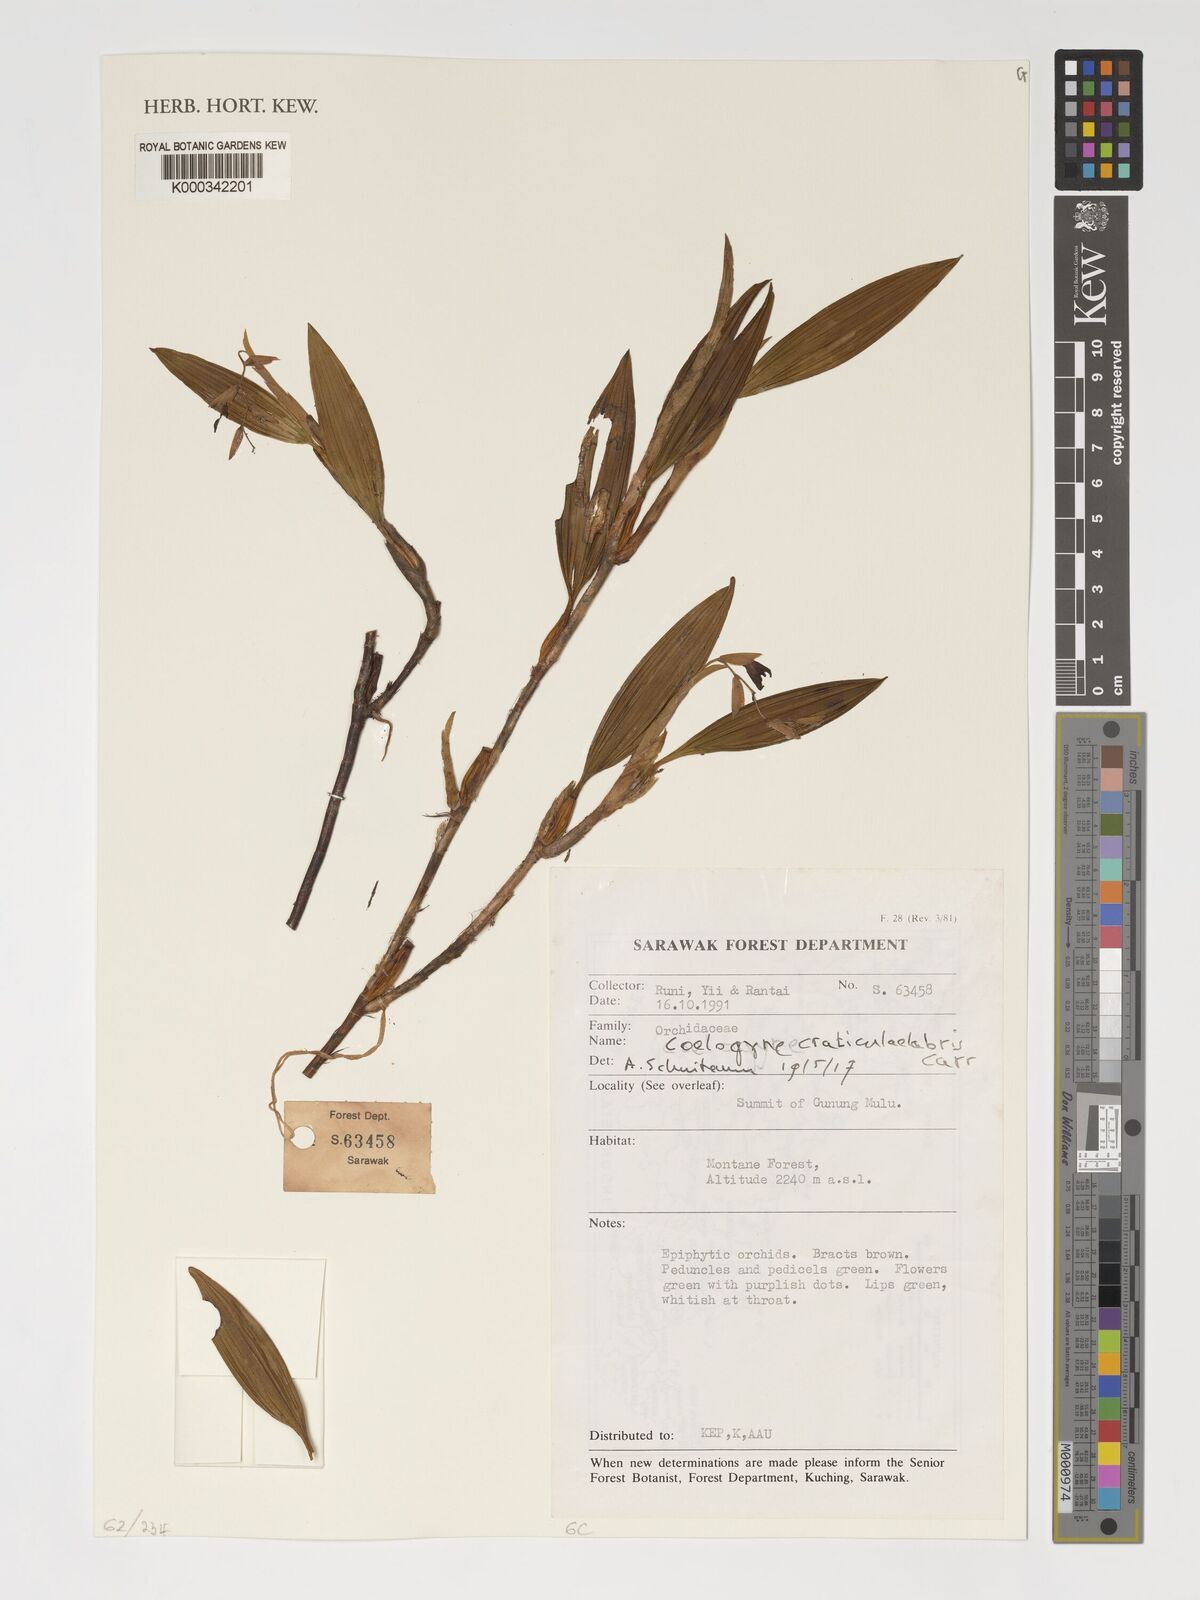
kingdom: Plantae
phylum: Tracheophyta
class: Liliopsida
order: Asparagales
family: Orchidaceae
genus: Coelogyne
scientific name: Coelogyne craticulilabris
